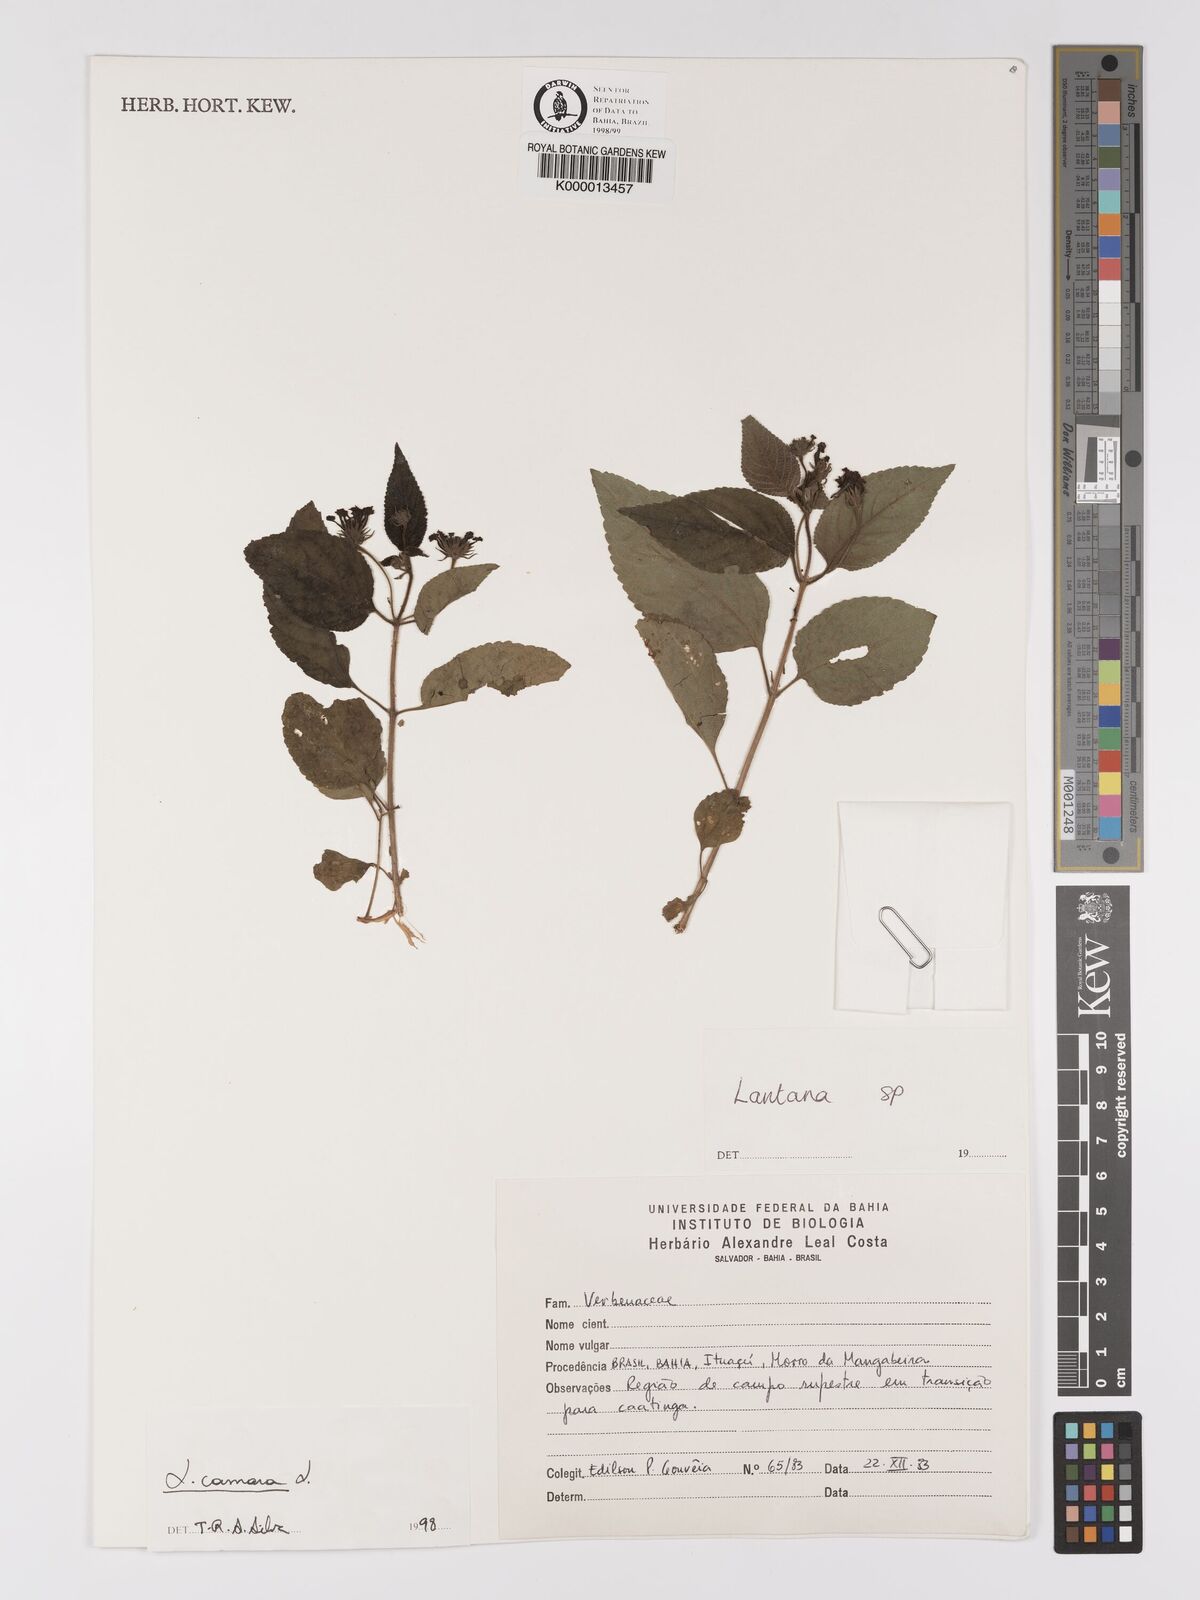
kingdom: Plantae
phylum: Tracheophyta
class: Magnoliopsida
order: Lamiales
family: Verbenaceae
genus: Lantana
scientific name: Lantana camara
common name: Lantana
